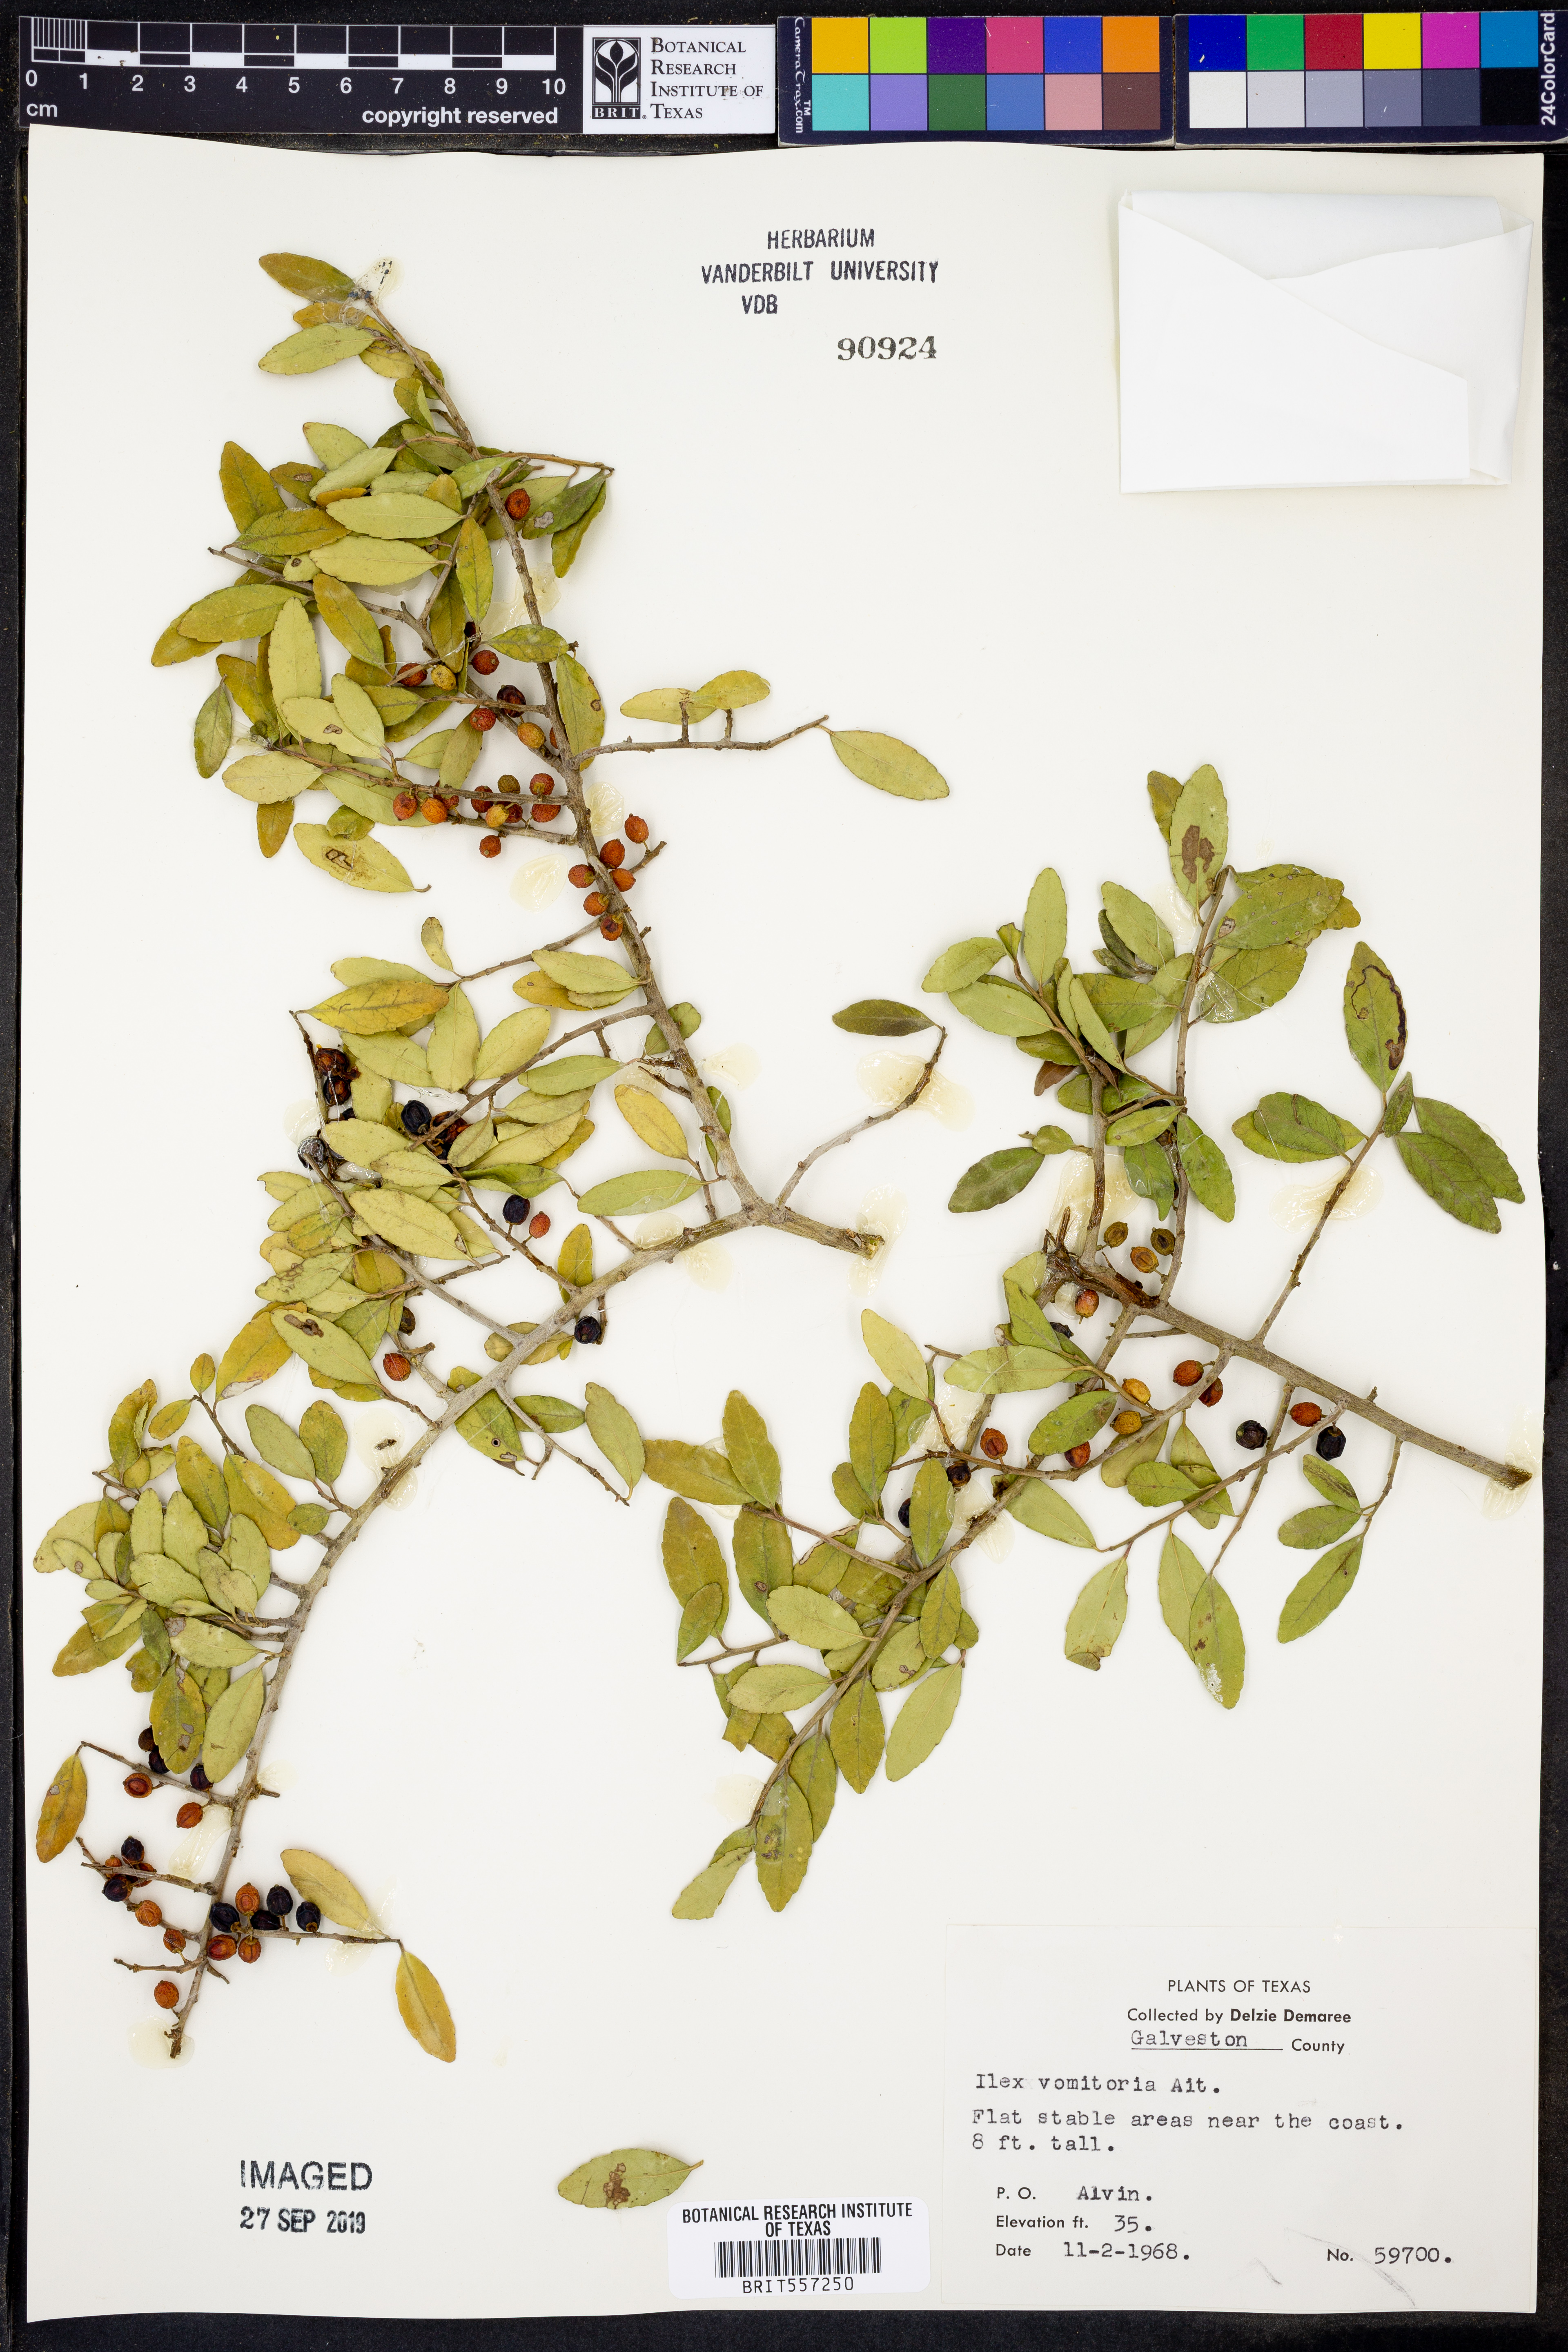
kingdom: Plantae
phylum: Tracheophyta
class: Magnoliopsida
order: Aquifoliales
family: Aquifoliaceae
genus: Ilex
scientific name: Ilex vomitoria
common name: Yaupon holly
